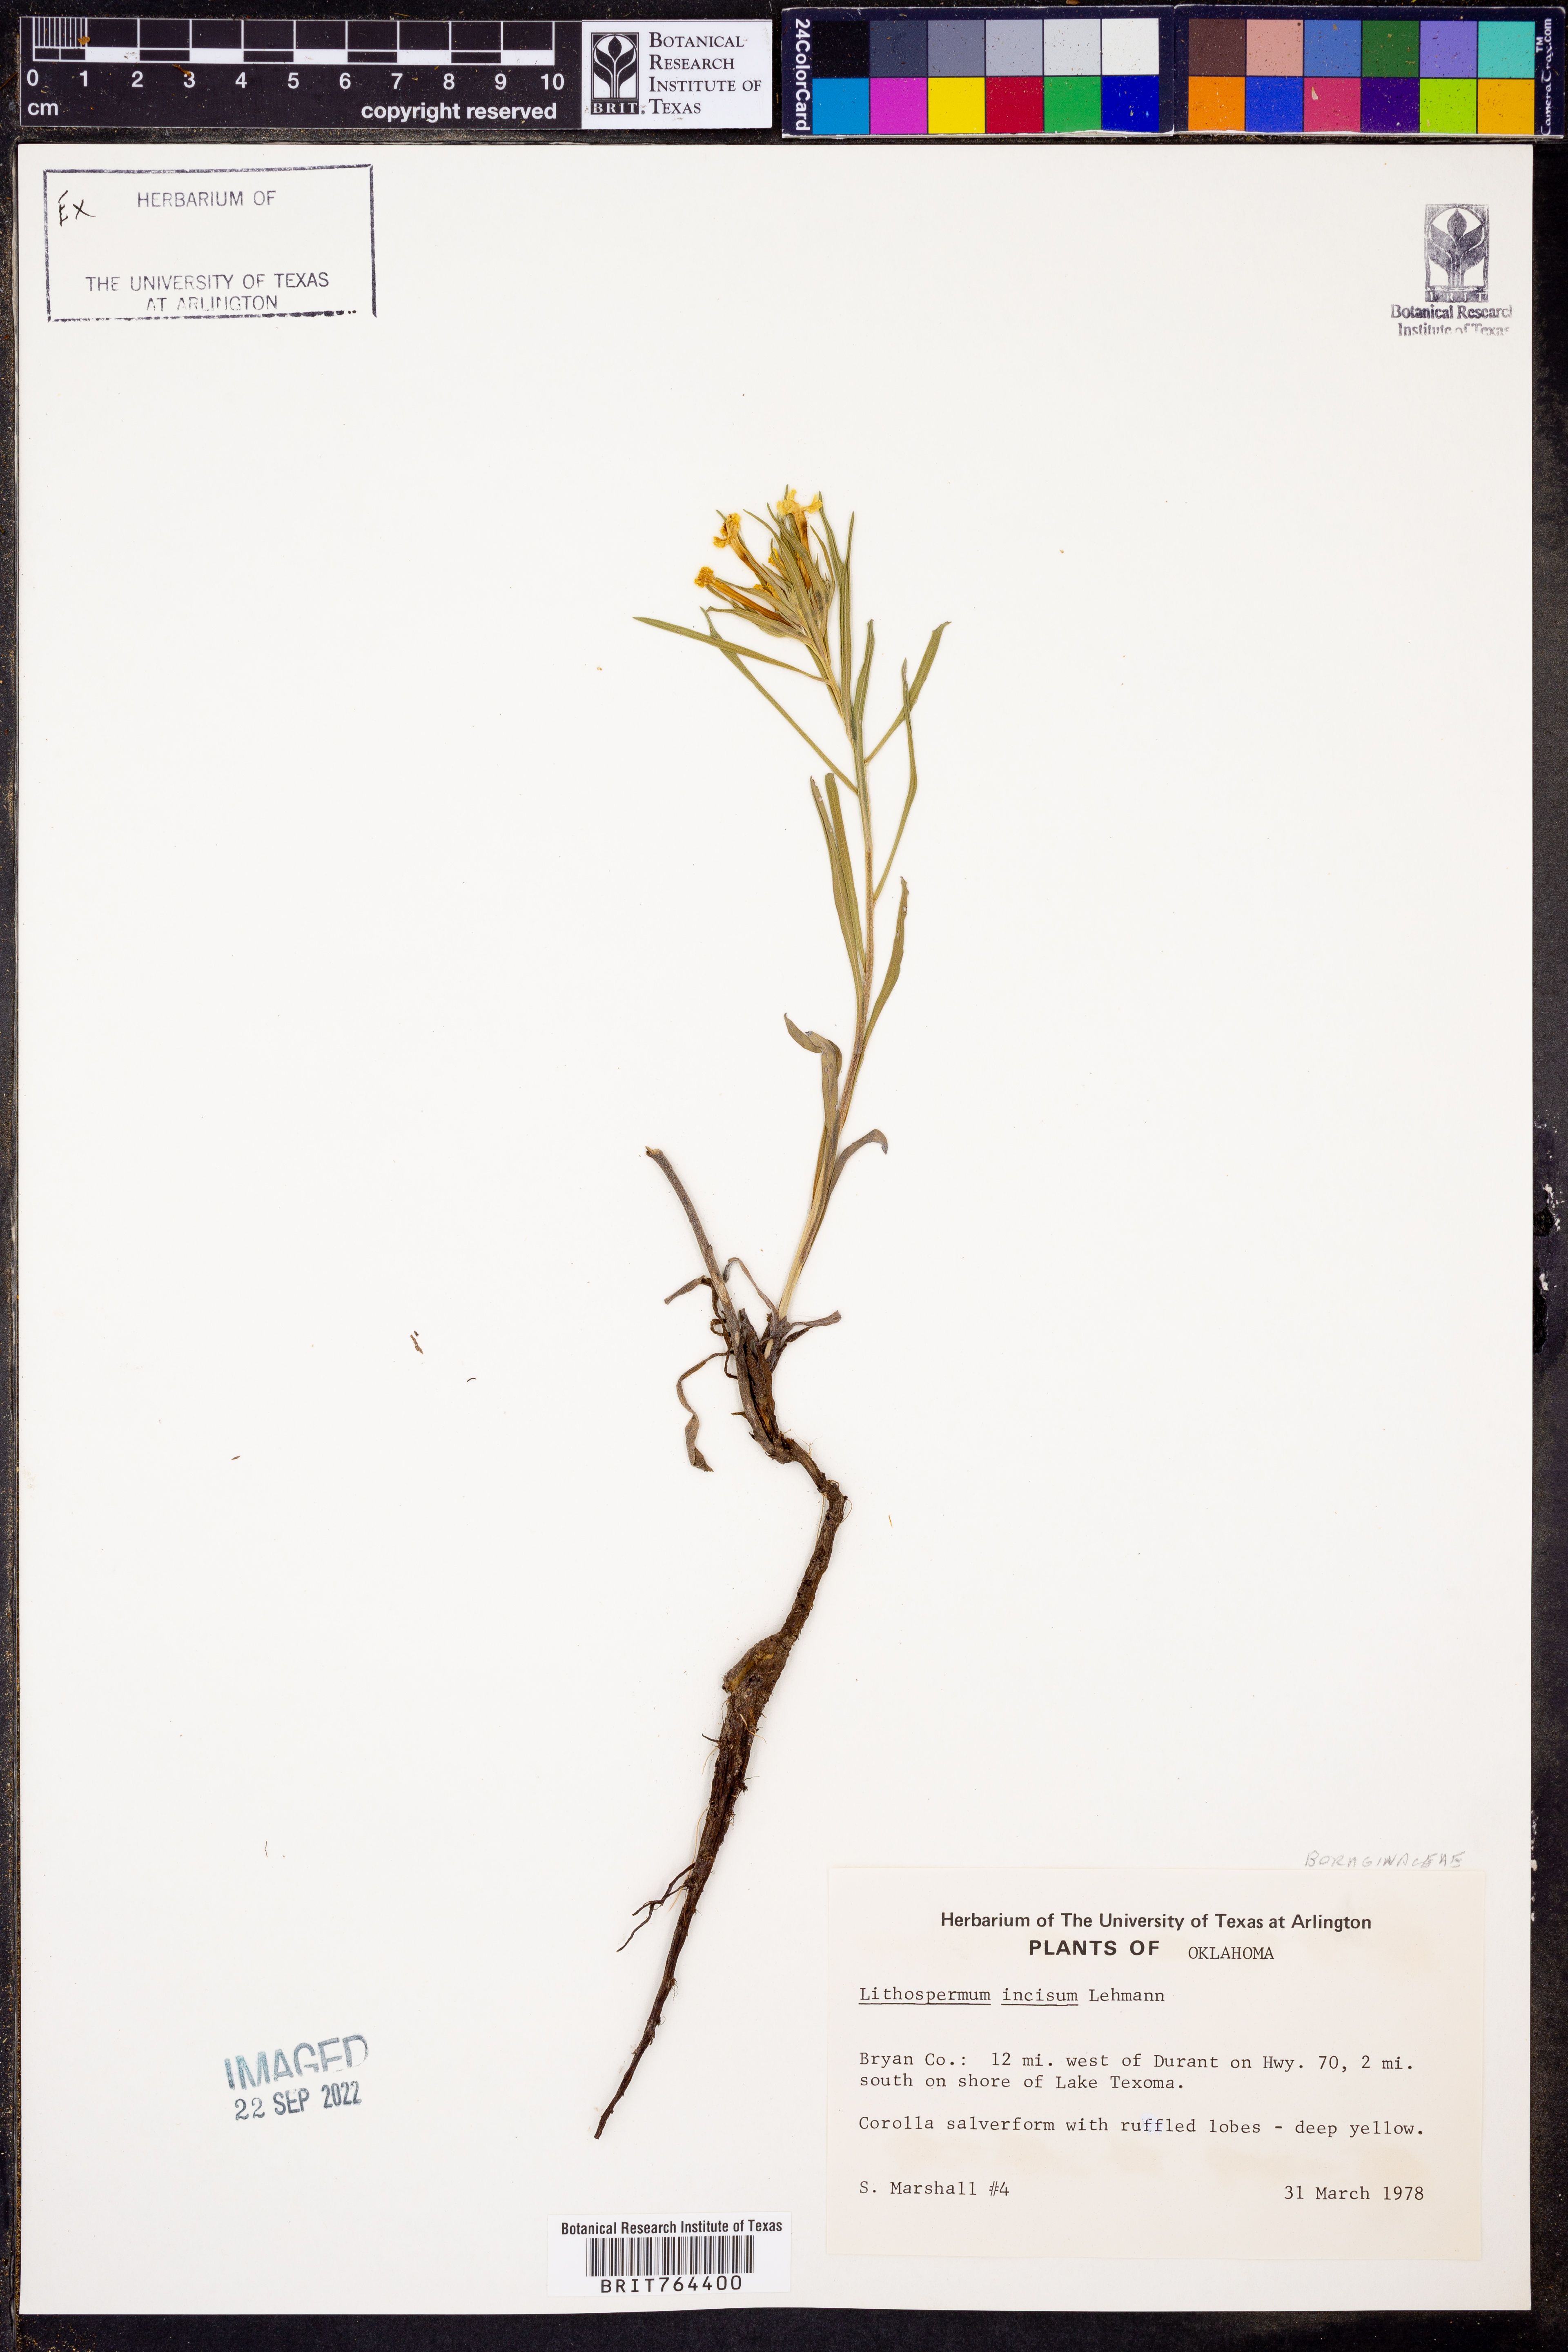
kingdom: Plantae
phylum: Tracheophyta
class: Magnoliopsida
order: Boraginales
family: Boraginaceae
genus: Lithospermum
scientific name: Lithospermum incisum
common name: Fringed gromwell
